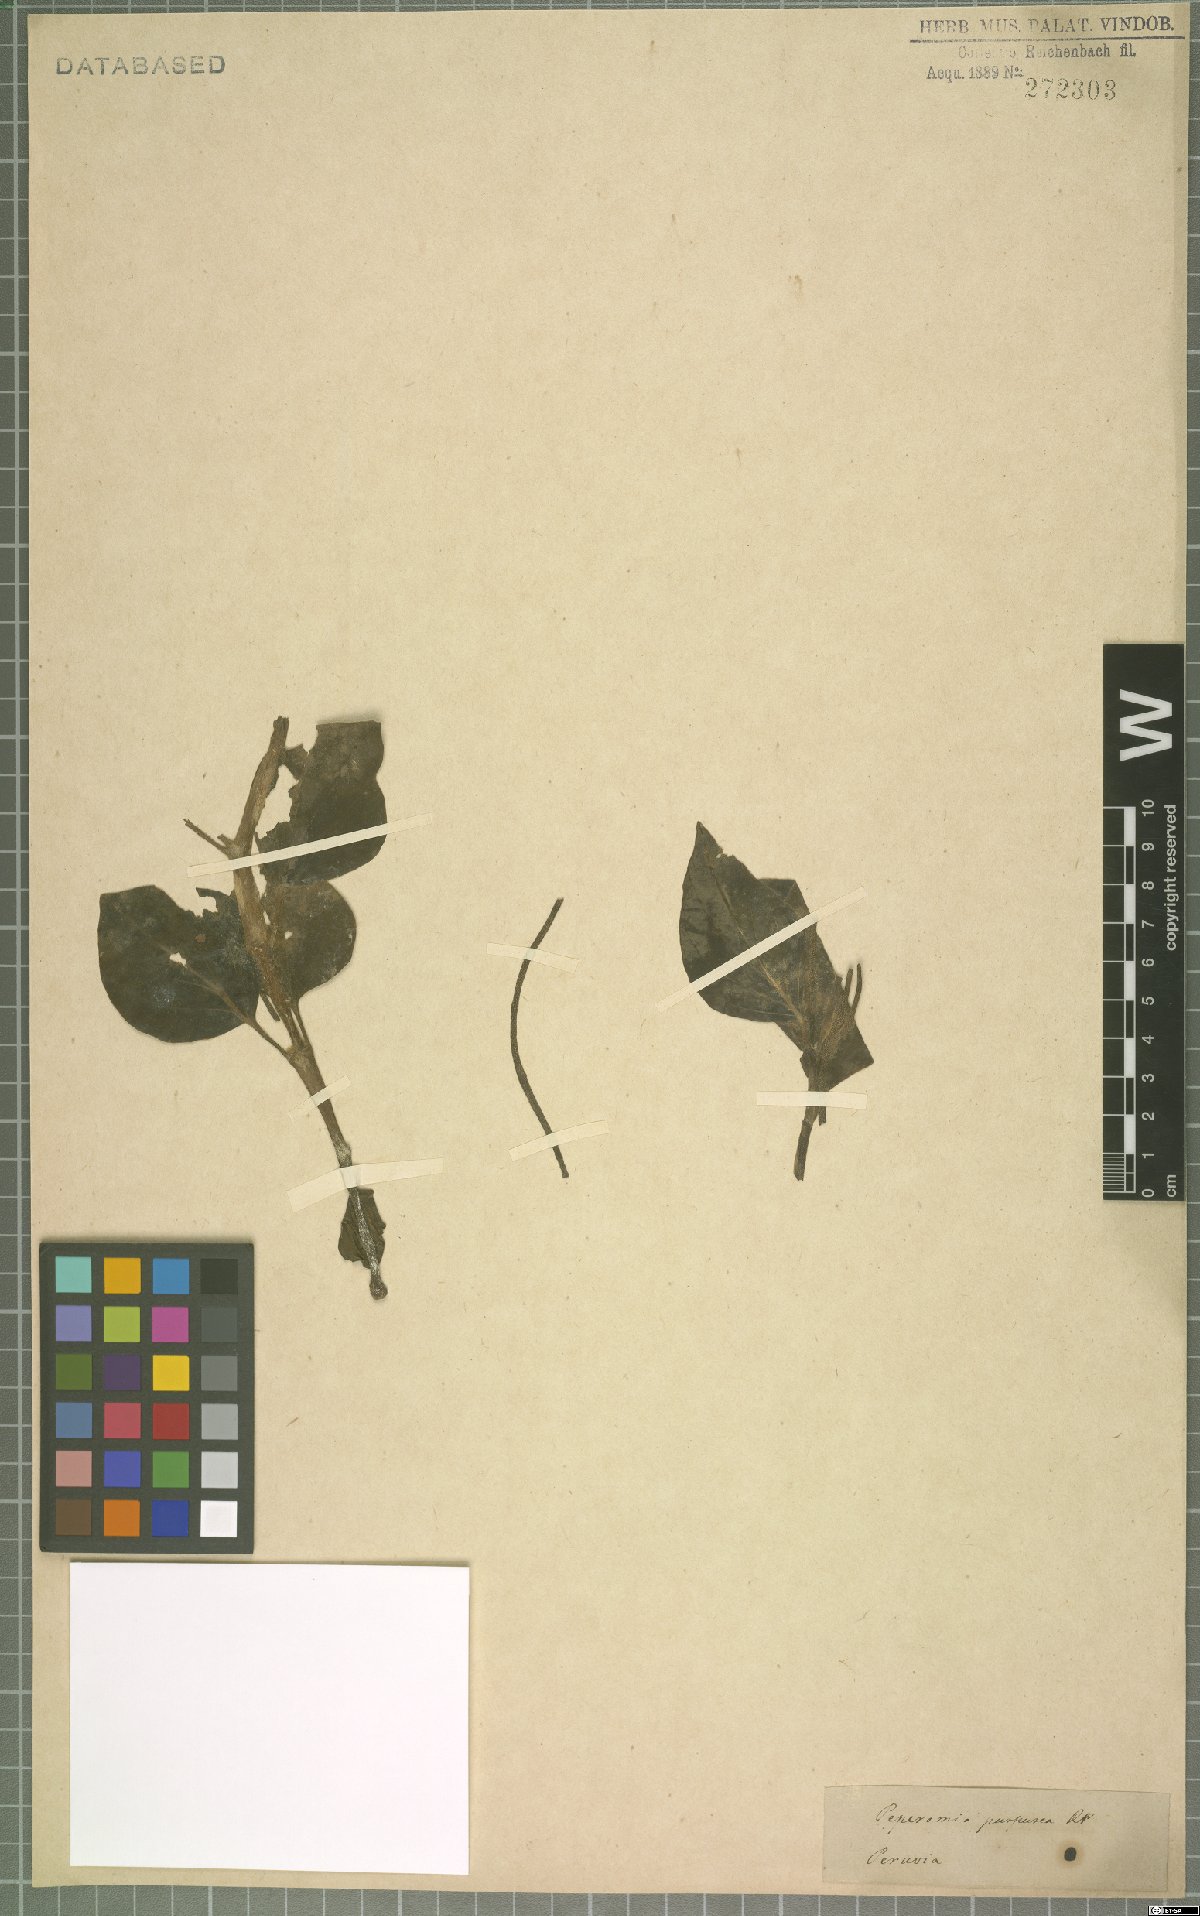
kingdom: Plantae
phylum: Tracheophyta
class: Magnoliopsida
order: Piperales
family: Piperaceae
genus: Peperomia
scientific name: Peperomia purpurea
